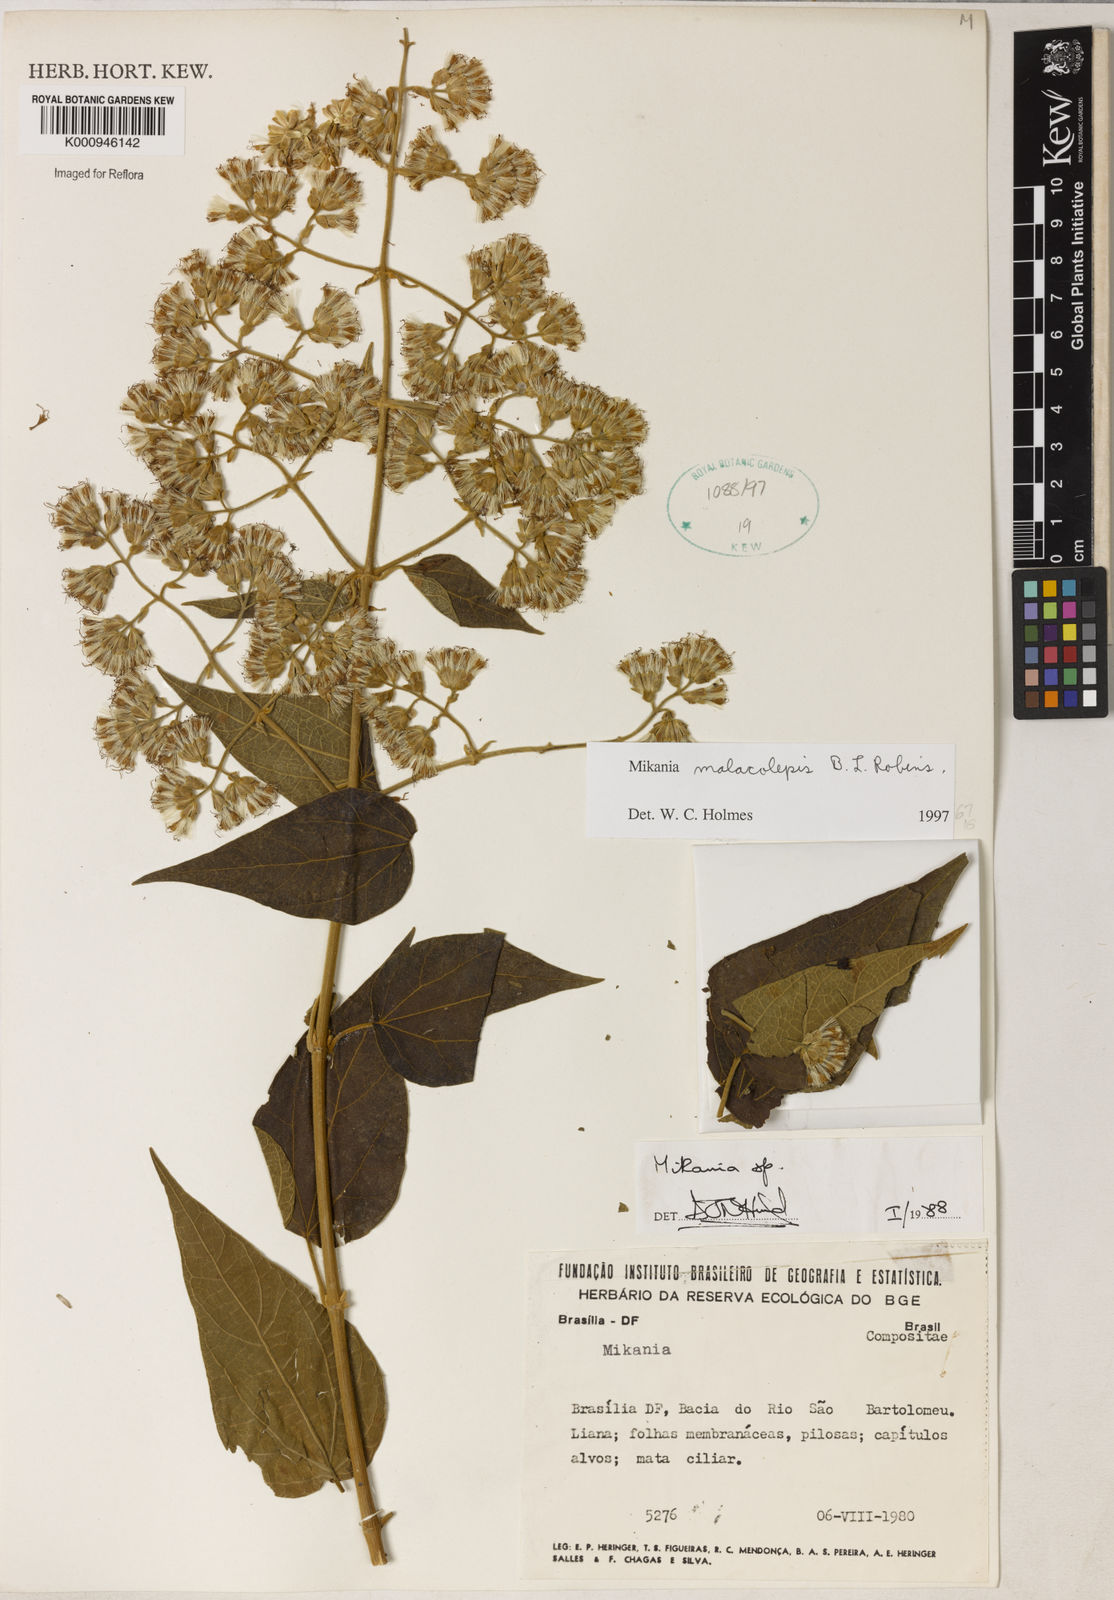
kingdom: Plantae
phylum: Tracheophyta
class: Magnoliopsida
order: Asterales
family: Asteraceae
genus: Mikania
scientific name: Mikania filgueirasii
